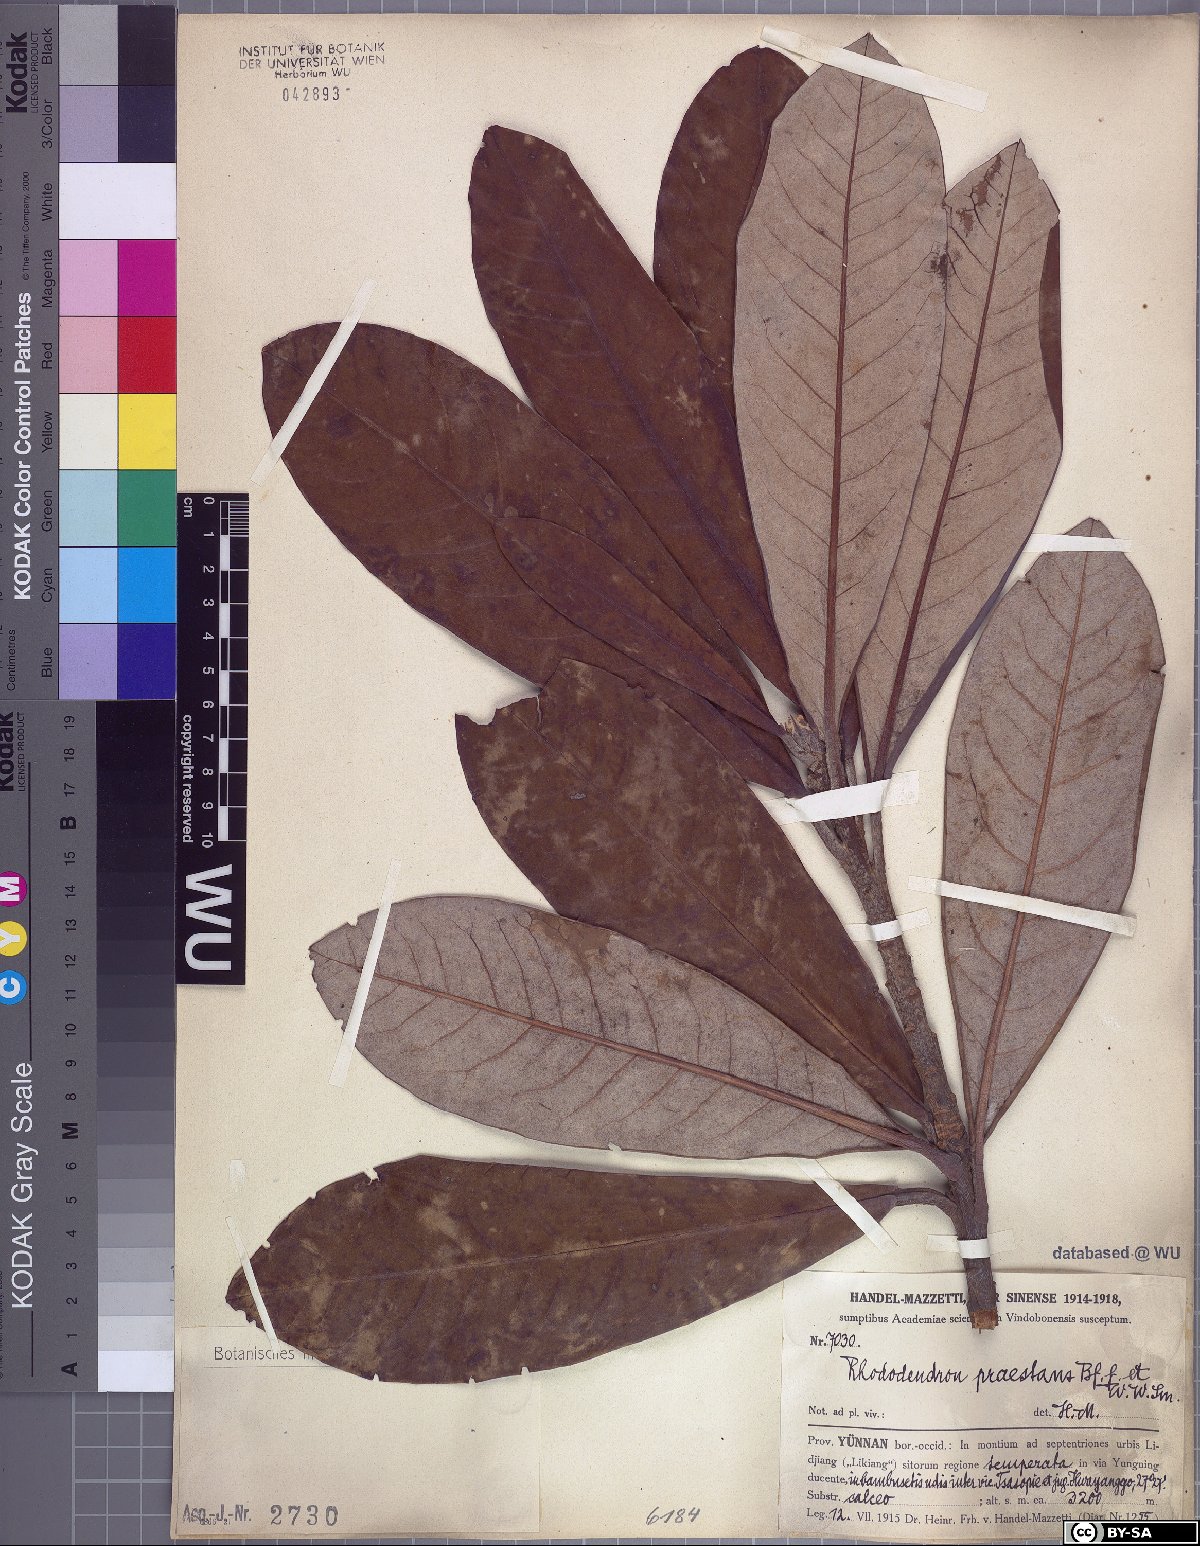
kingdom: Plantae
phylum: Tracheophyta
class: Magnoliopsida
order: Ericales
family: Ericaceae
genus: Rhododendron
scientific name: Rhododendron praestans
